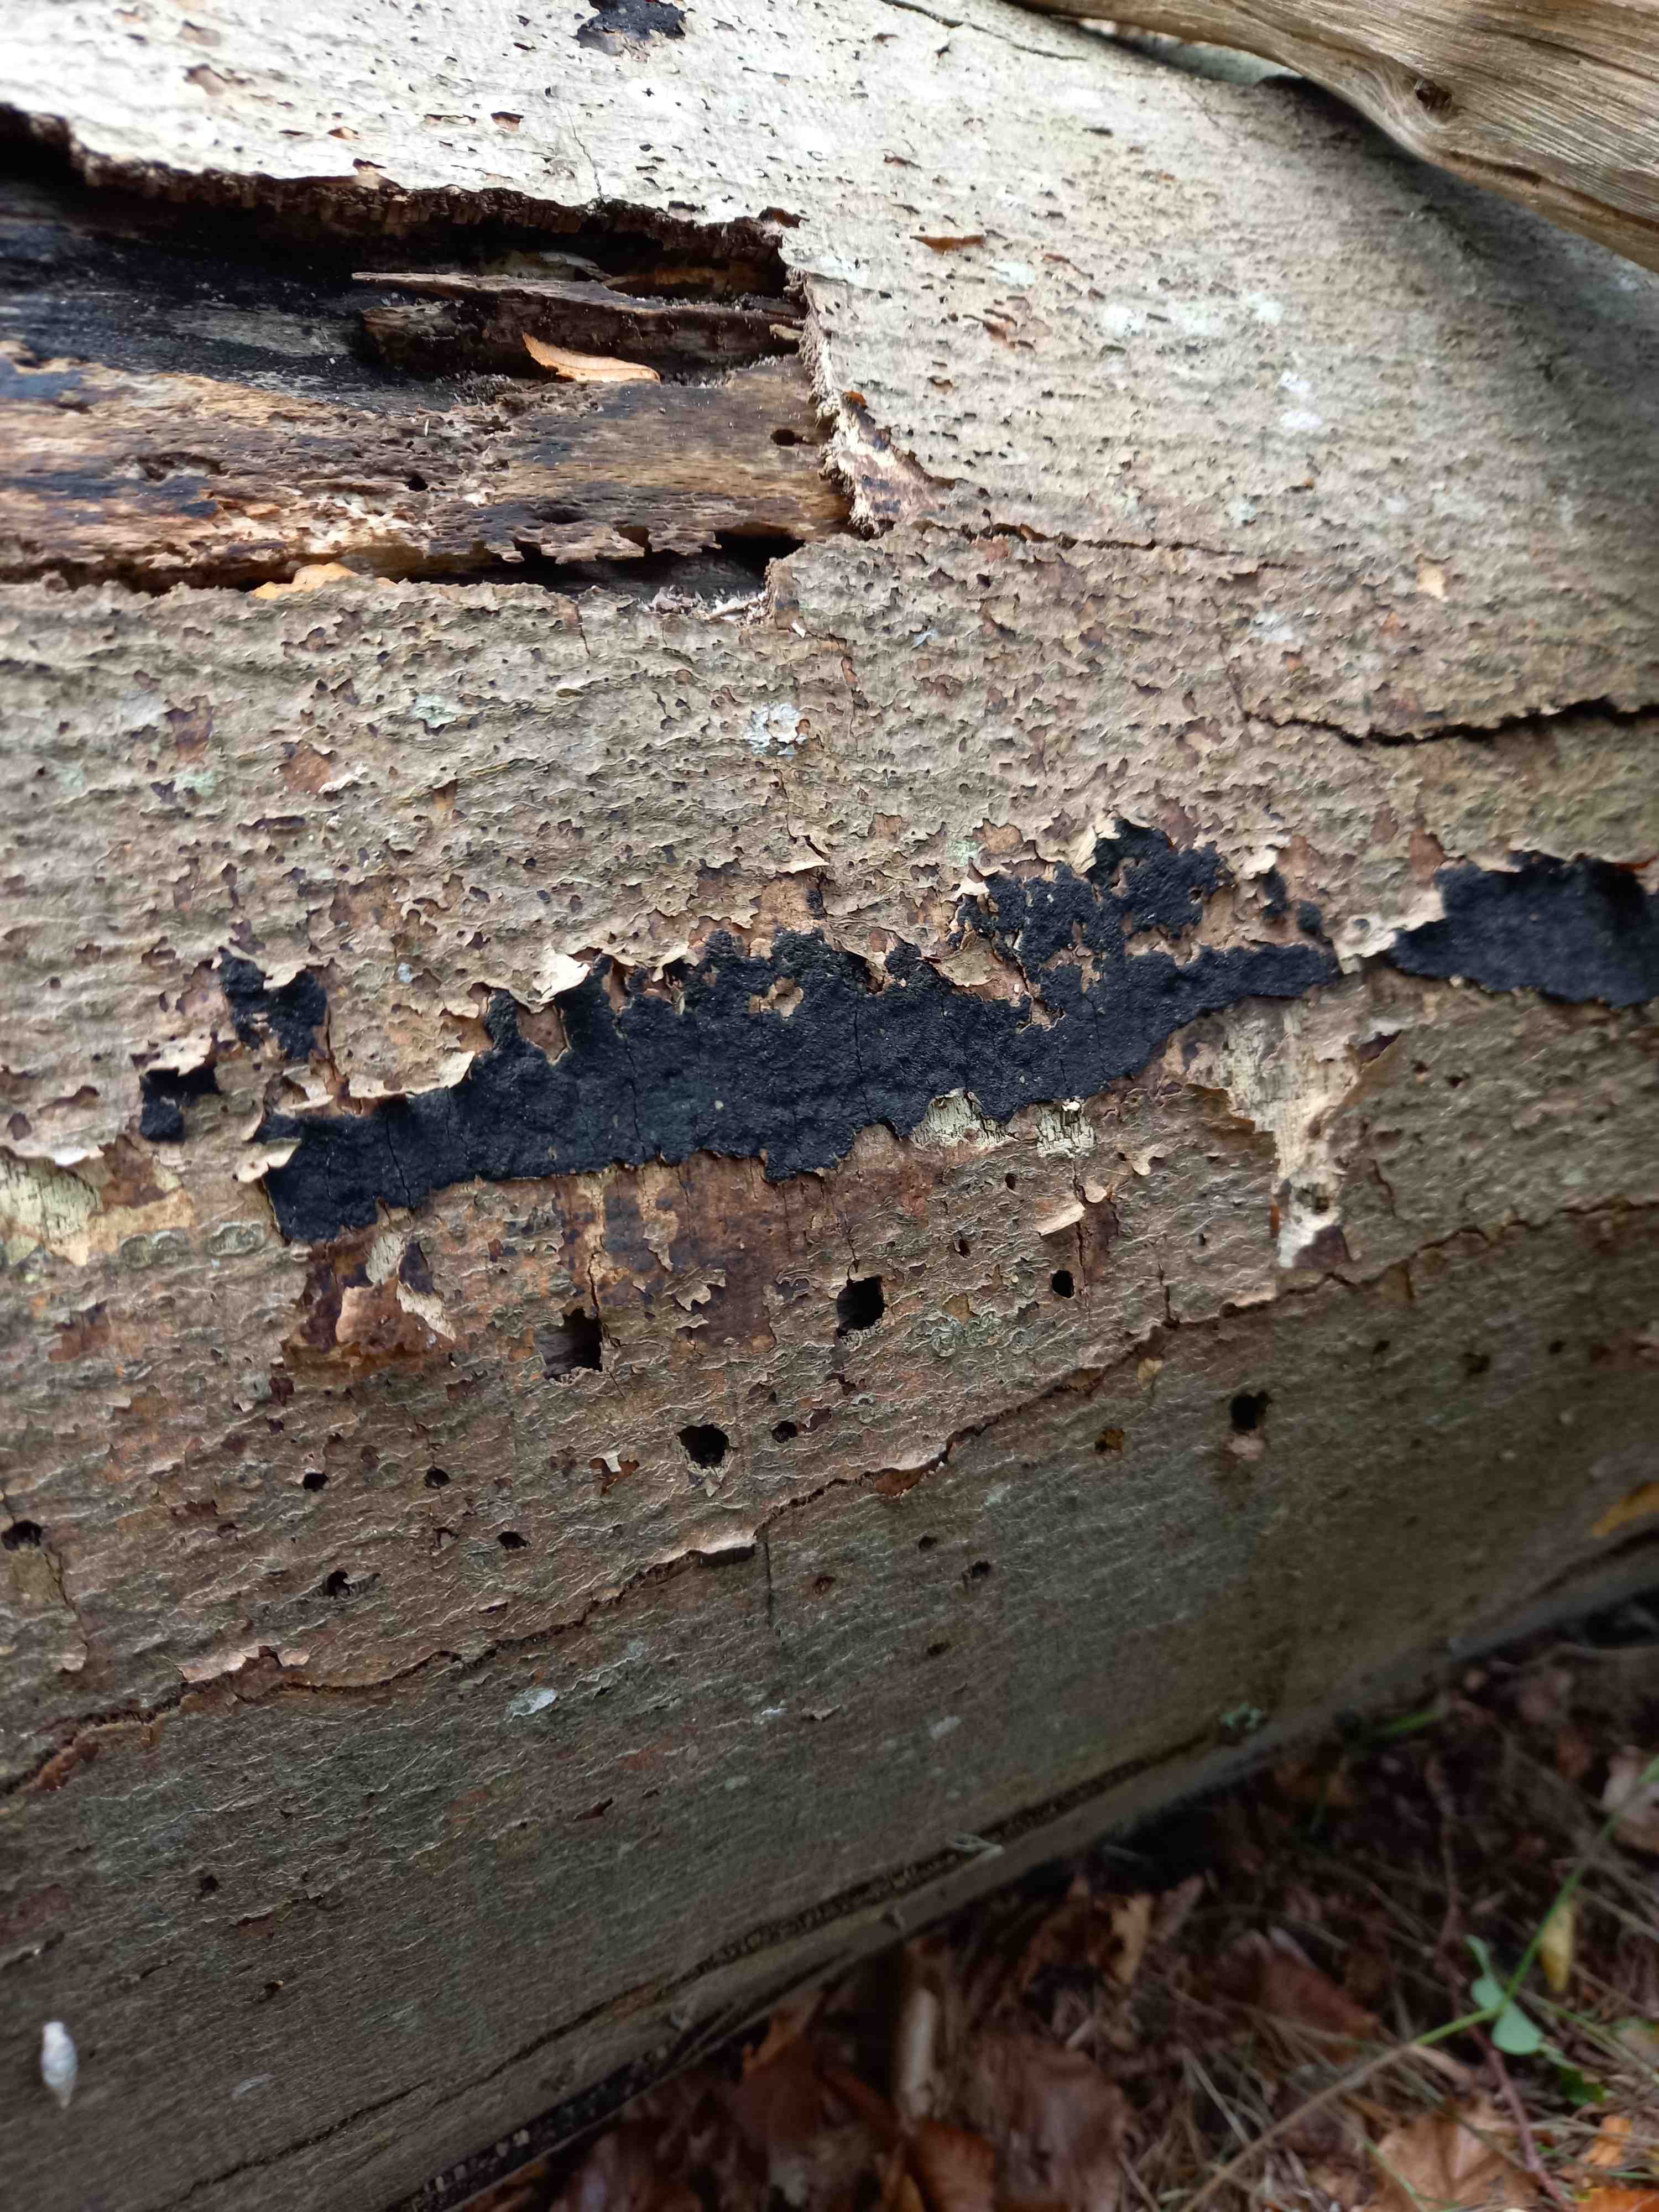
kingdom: Fungi
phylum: Ascomycota
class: Sordariomycetes
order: Xylariales
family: Diatrypaceae
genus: Eutypa
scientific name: Eutypa spinosa
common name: grov kulskorpe
